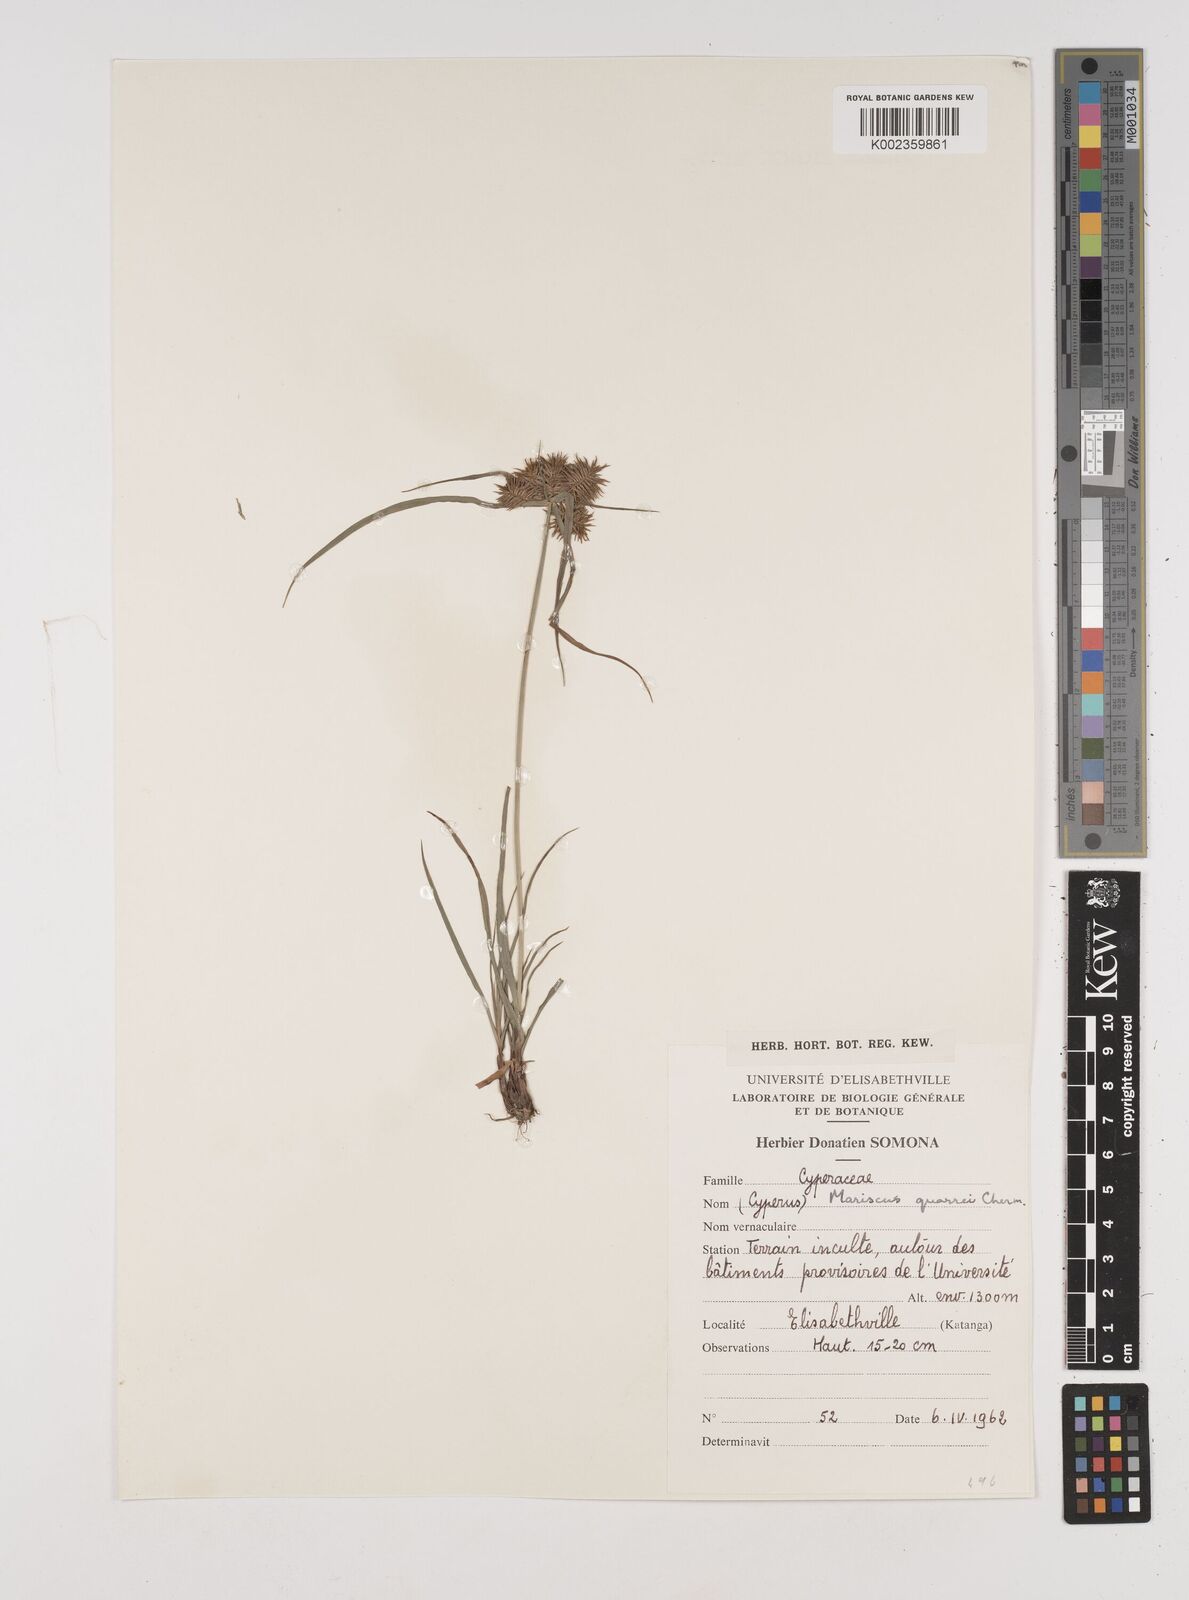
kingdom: Plantae
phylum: Tracheophyta
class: Liliopsida
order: Poales
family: Cyperaceae
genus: Cyperus
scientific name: Cyperus tenuis
